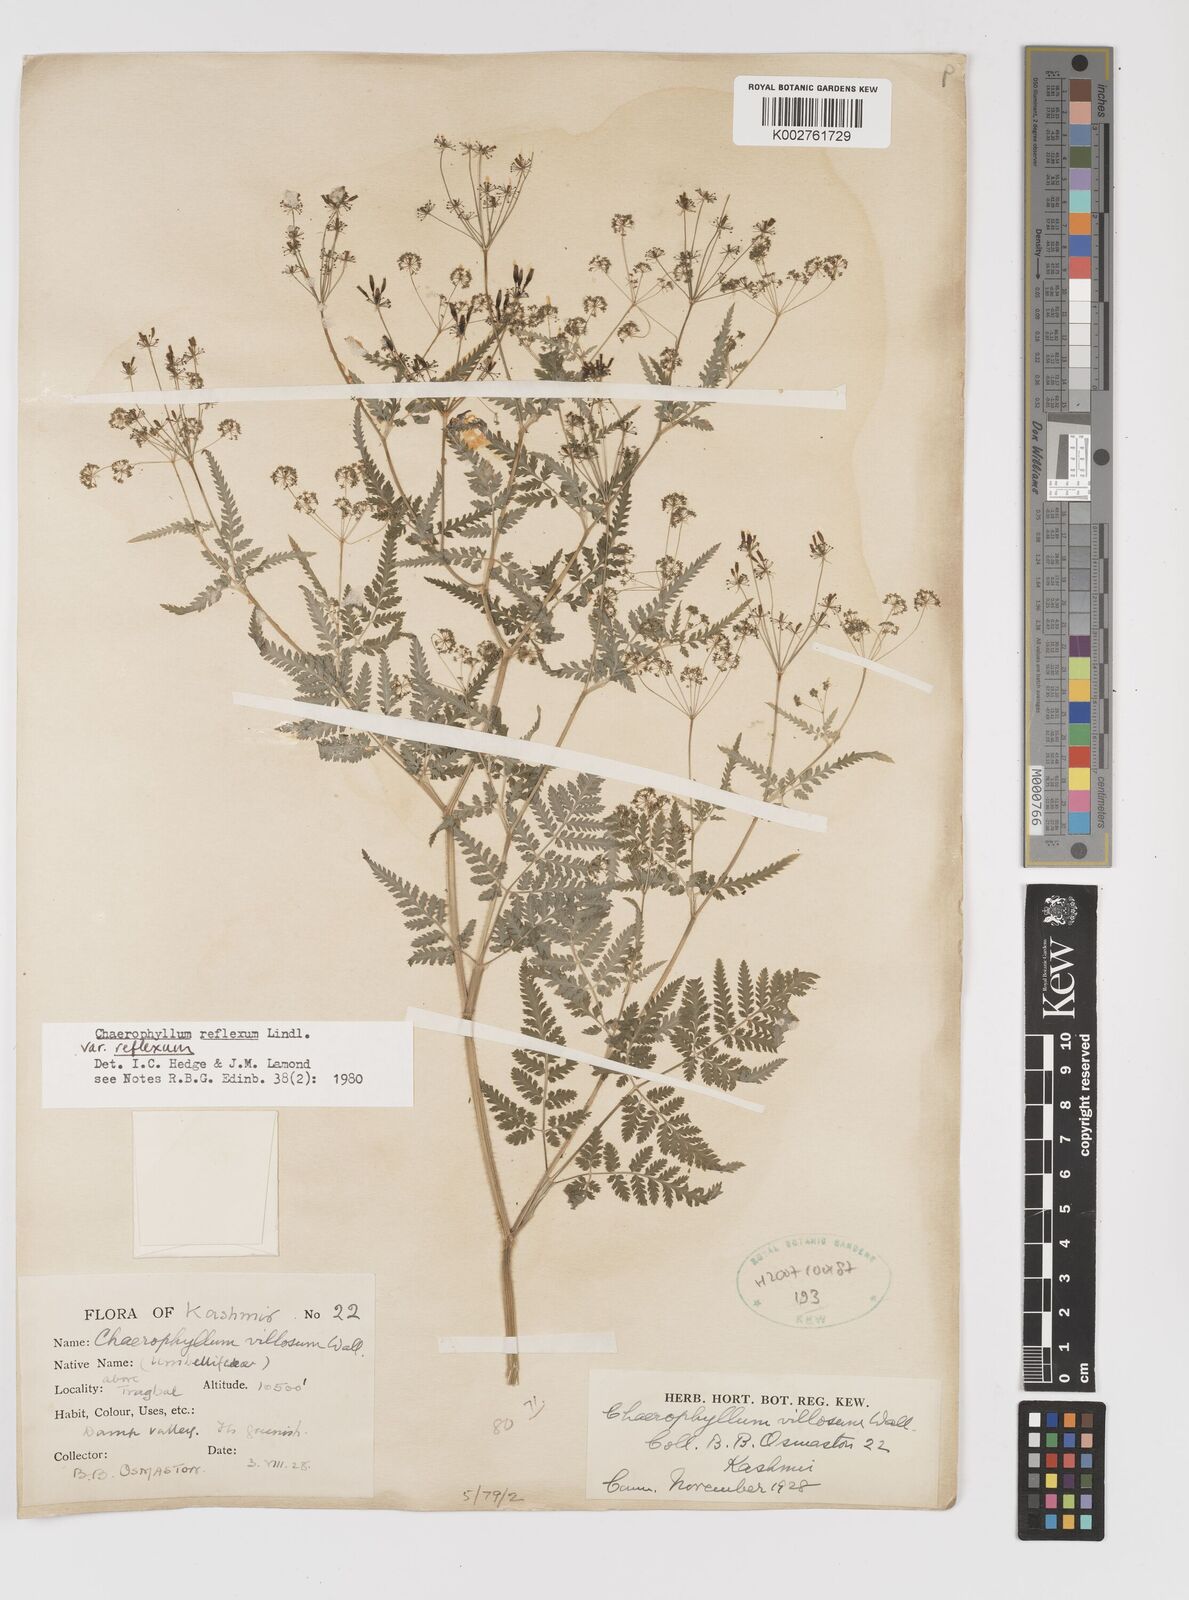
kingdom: Plantae
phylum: Tracheophyta
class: Magnoliopsida
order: Apiales
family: Apiaceae
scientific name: Apiaceae
